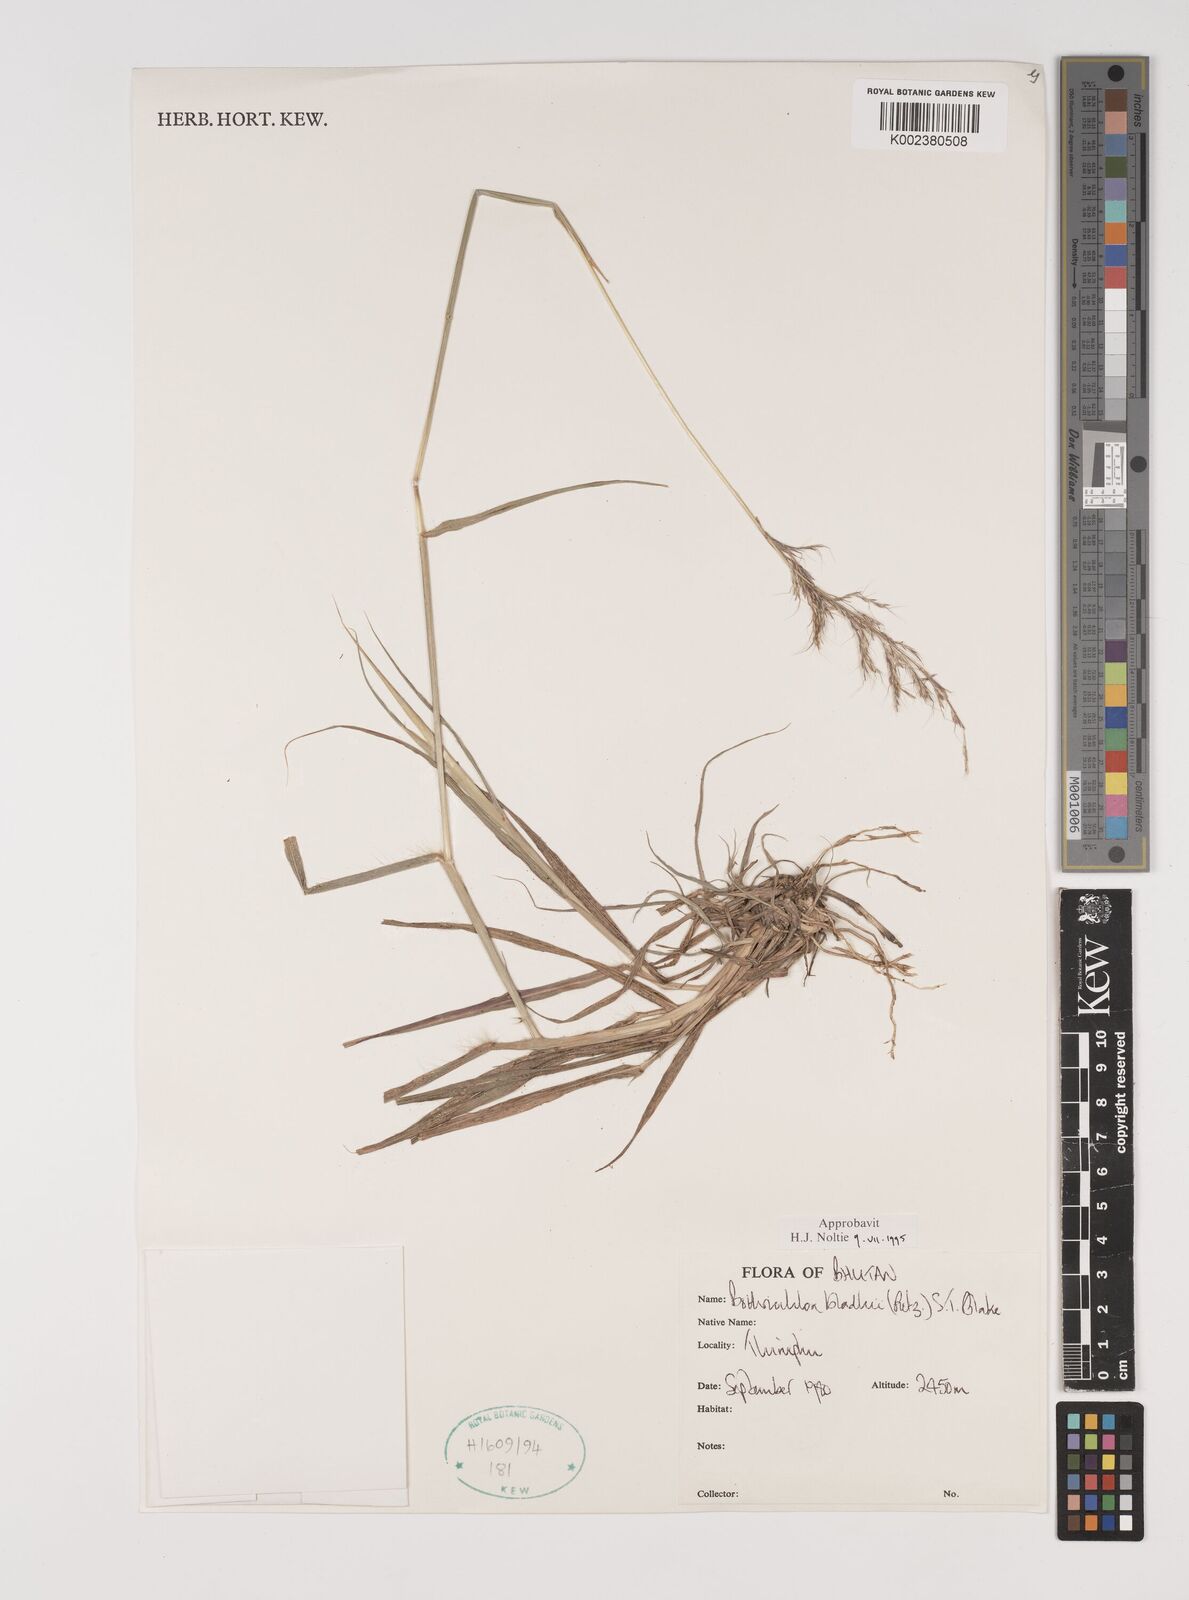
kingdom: Plantae
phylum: Tracheophyta
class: Liliopsida
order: Poales
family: Poaceae
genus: Bothriochloa
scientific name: Bothriochloa bladhii
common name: Caucasian bluestem
